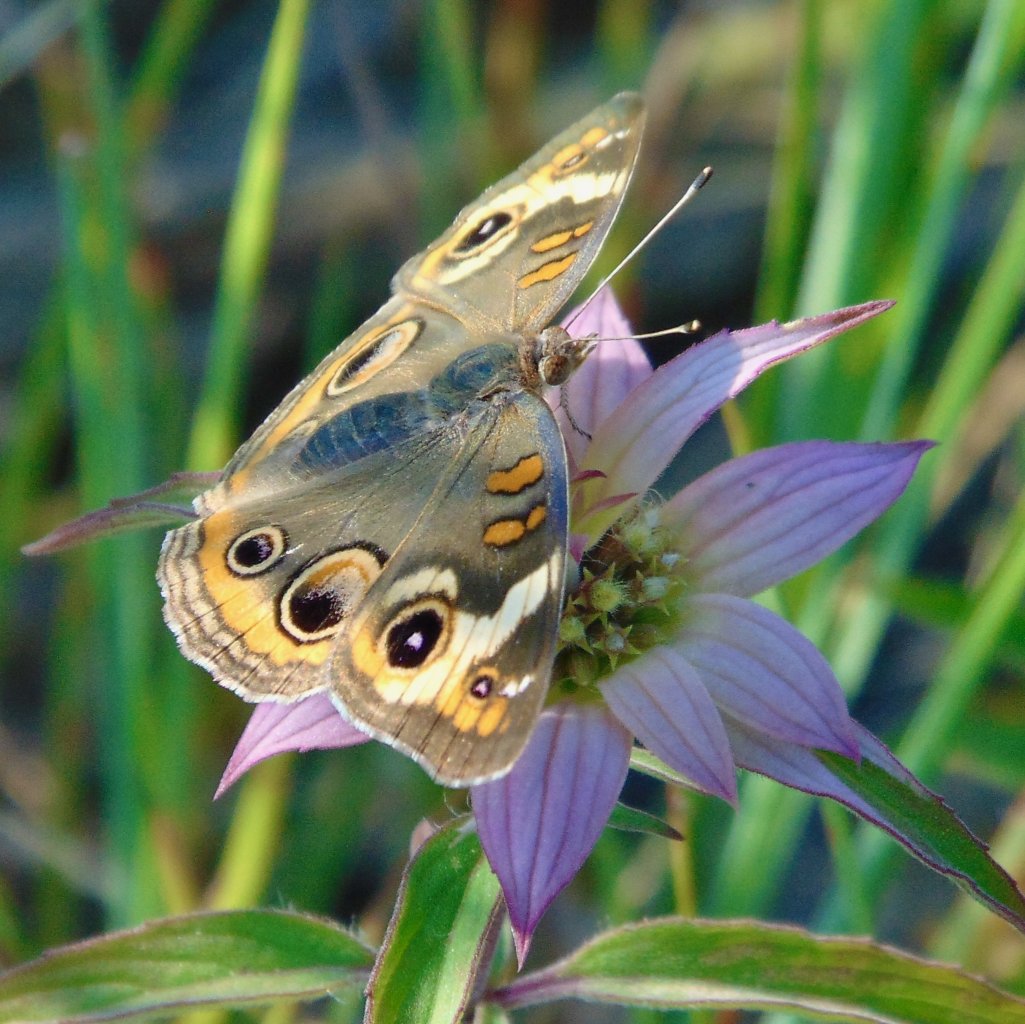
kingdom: Animalia
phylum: Arthropoda
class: Insecta
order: Lepidoptera
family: Nymphalidae
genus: Junonia
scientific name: Junonia coenia
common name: Common Buckeye
